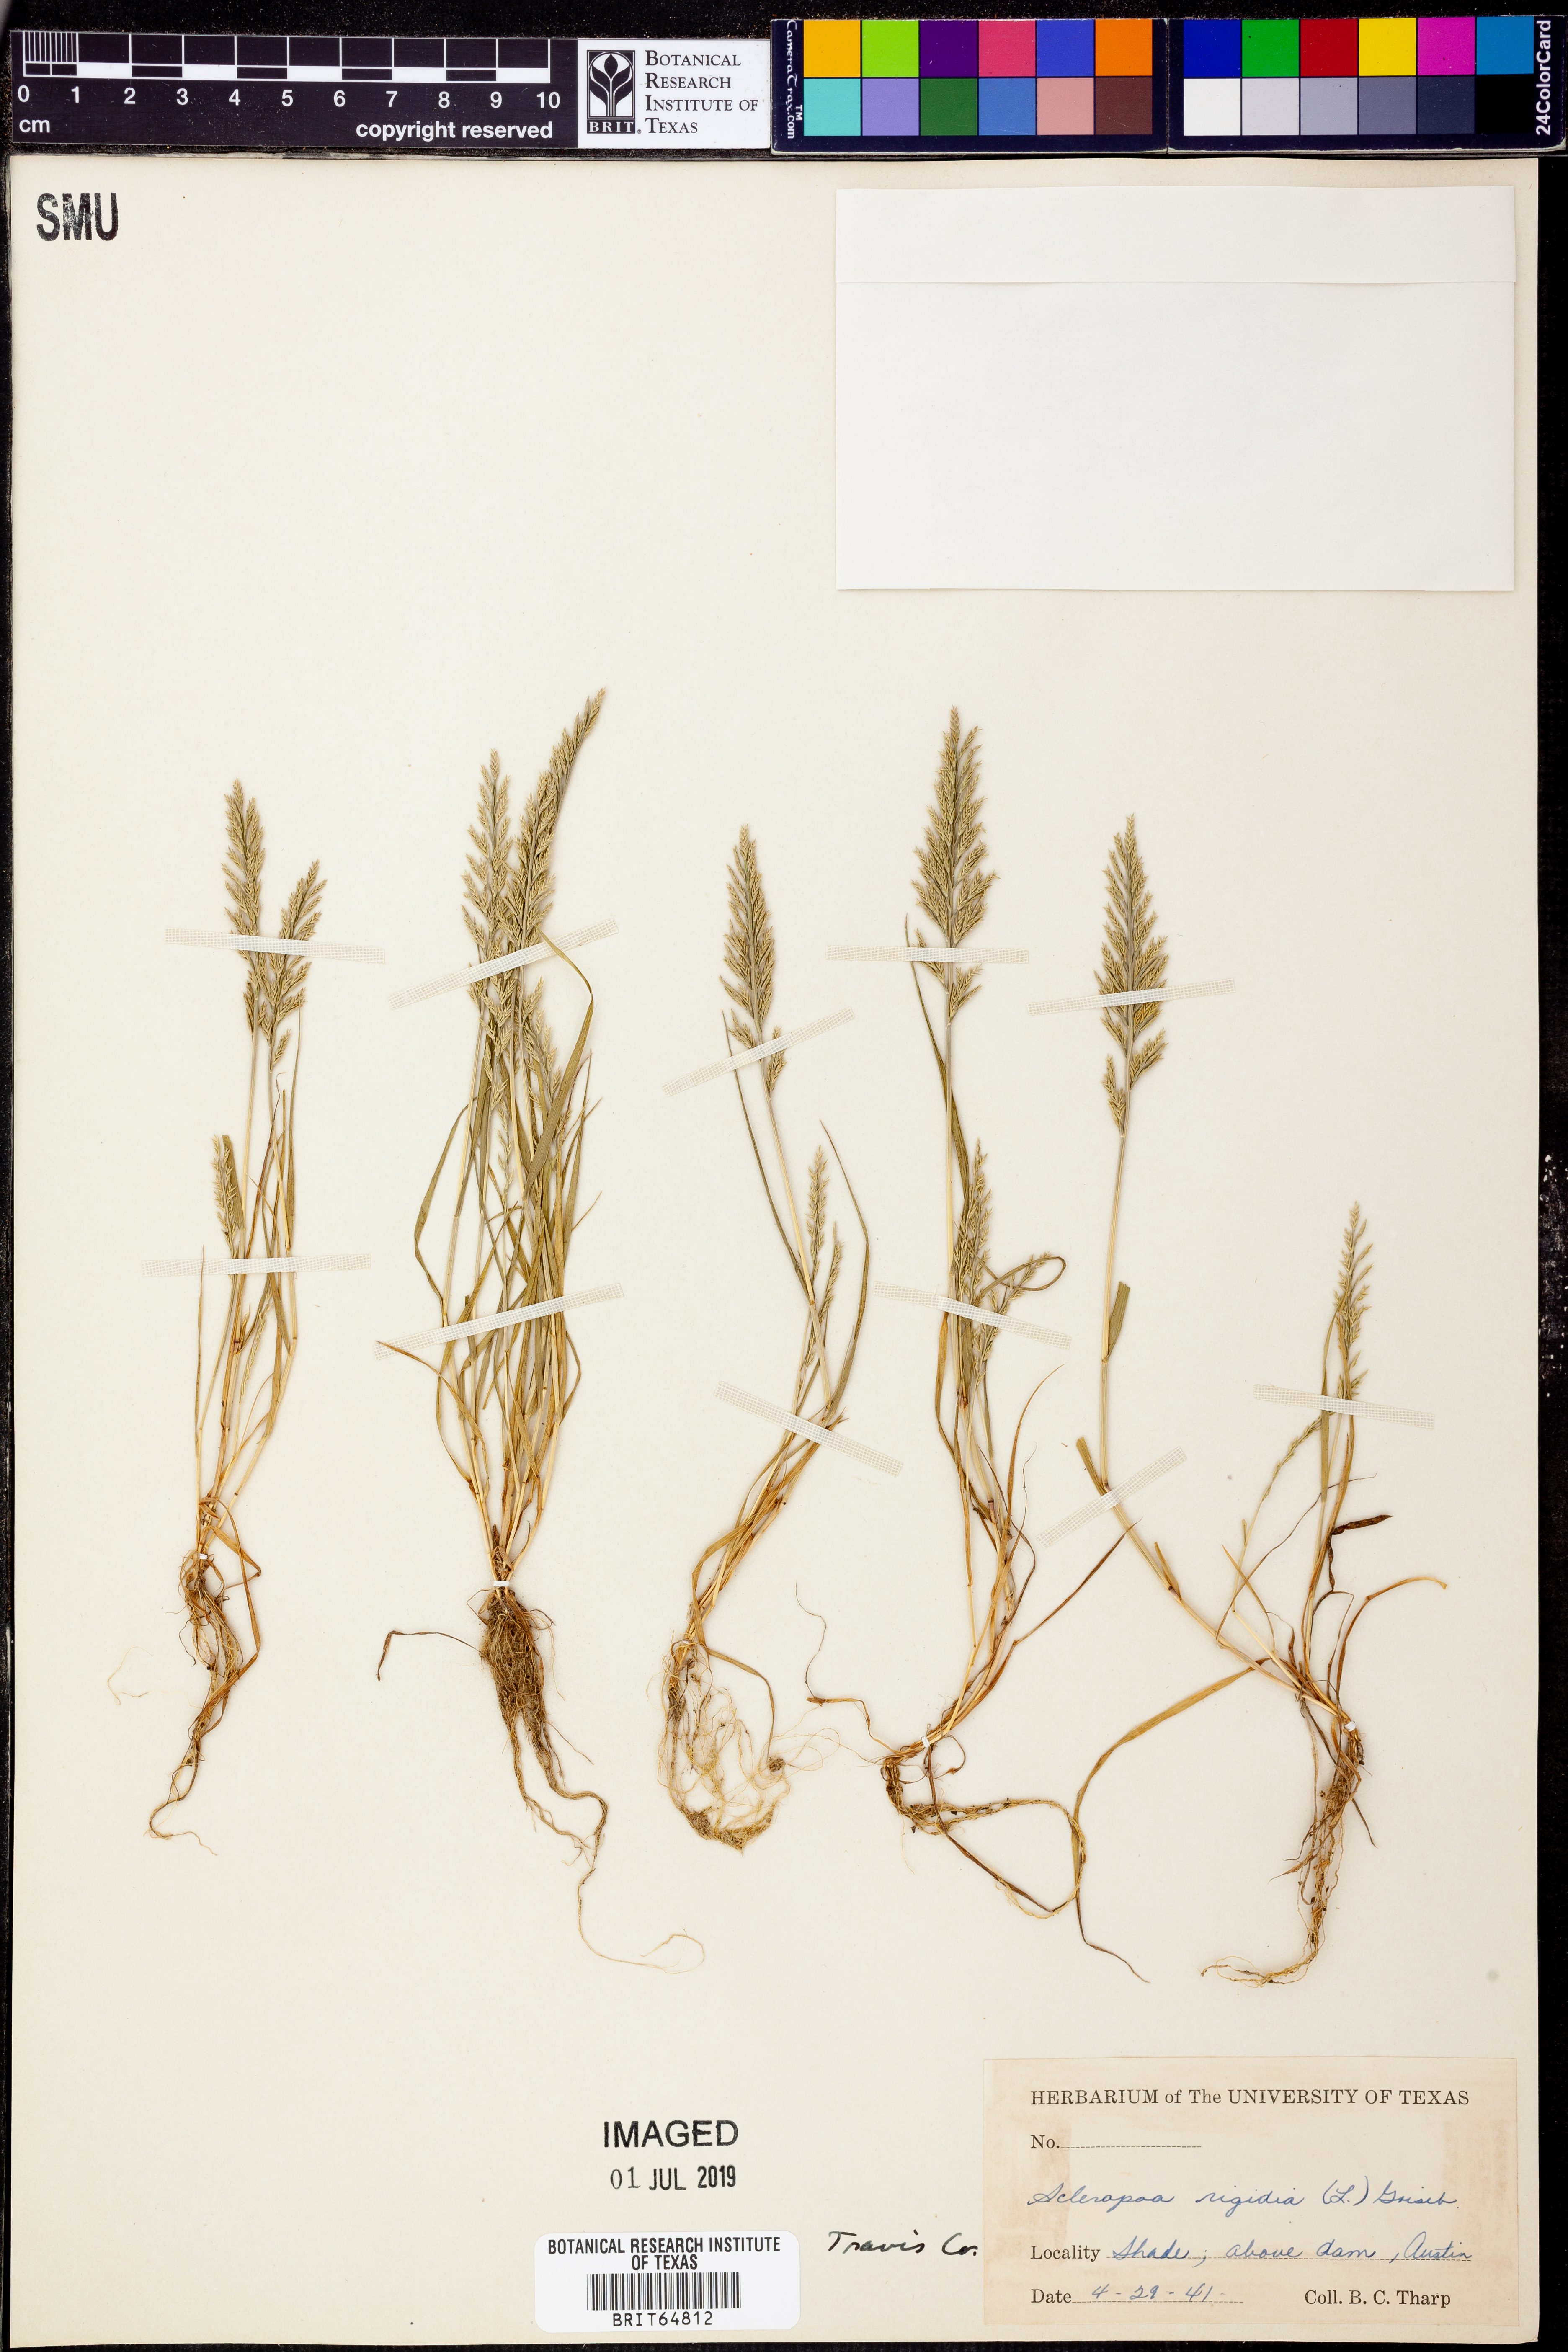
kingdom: Plantae
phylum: Tracheophyta
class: Liliopsida
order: Poales
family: Poaceae
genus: Catapodium
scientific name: Catapodium rigidum
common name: Fern-grass
